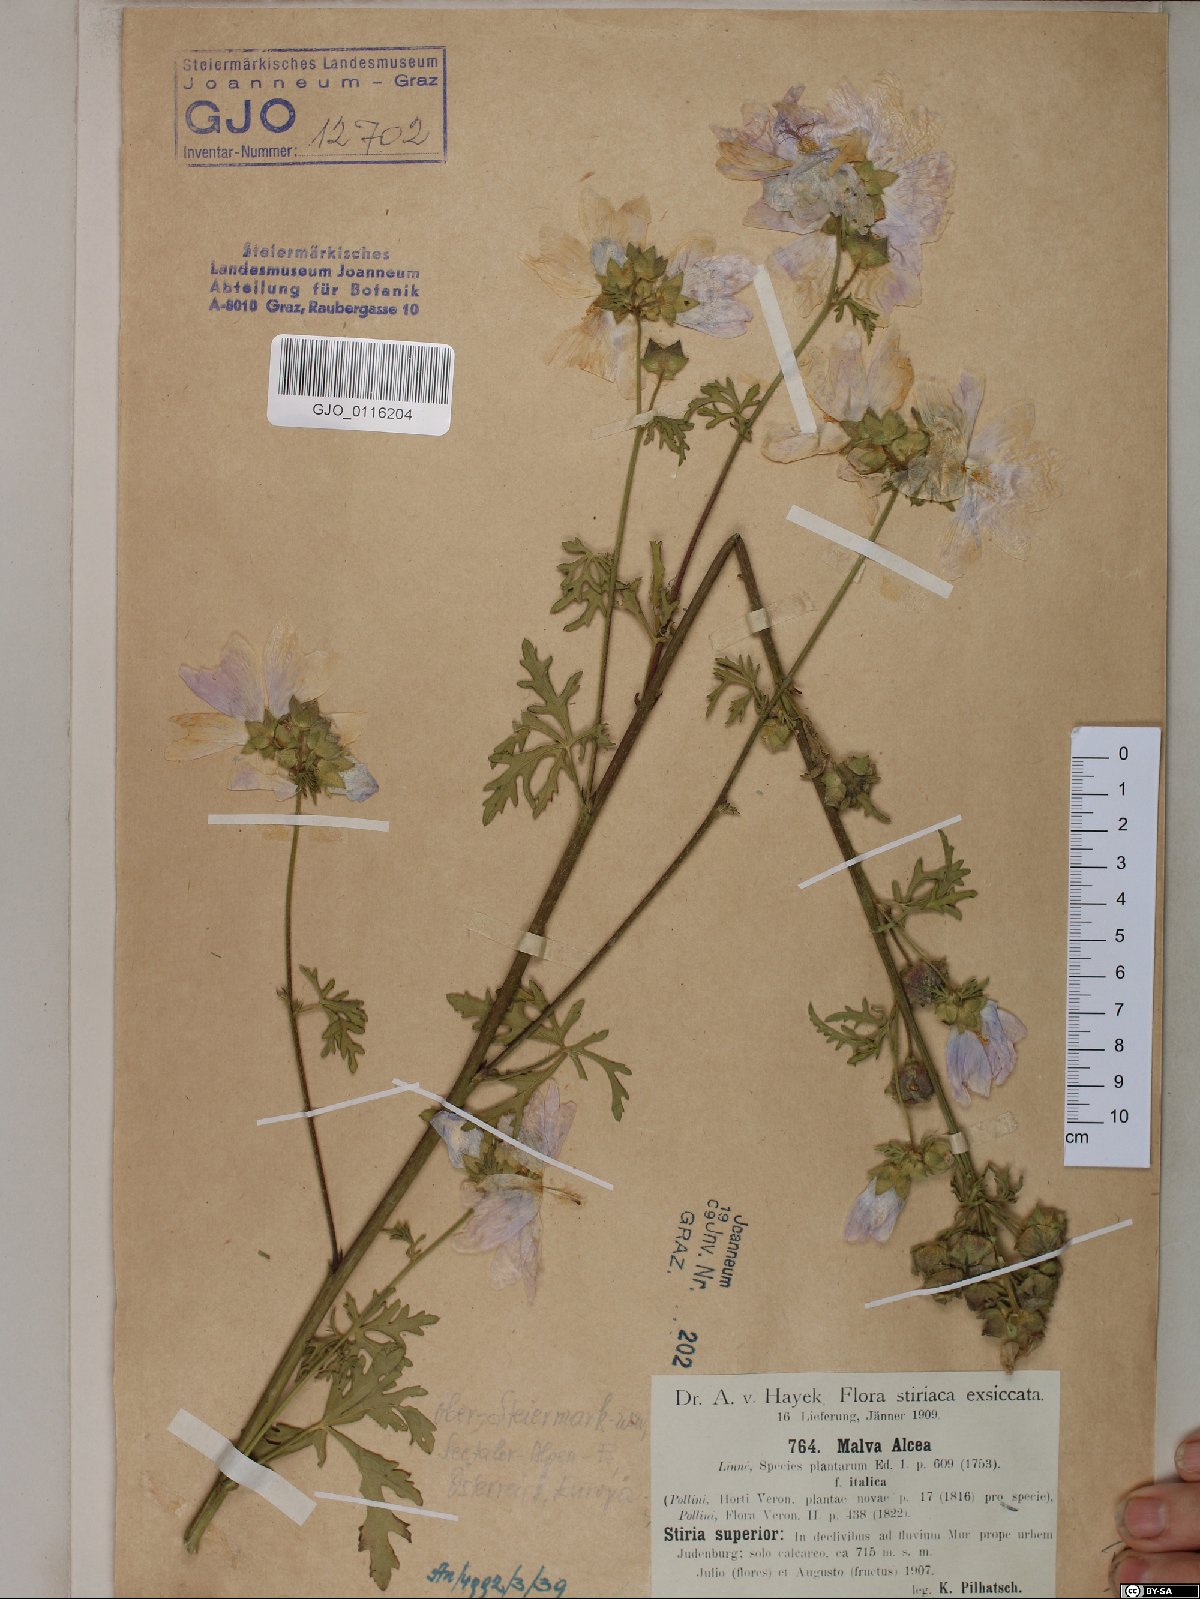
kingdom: Plantae
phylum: Tracheophyta
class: Magnoliopsida
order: Malvales
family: Malvaceae
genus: Malva
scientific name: Malva alcea
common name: Greater musk-mallow
